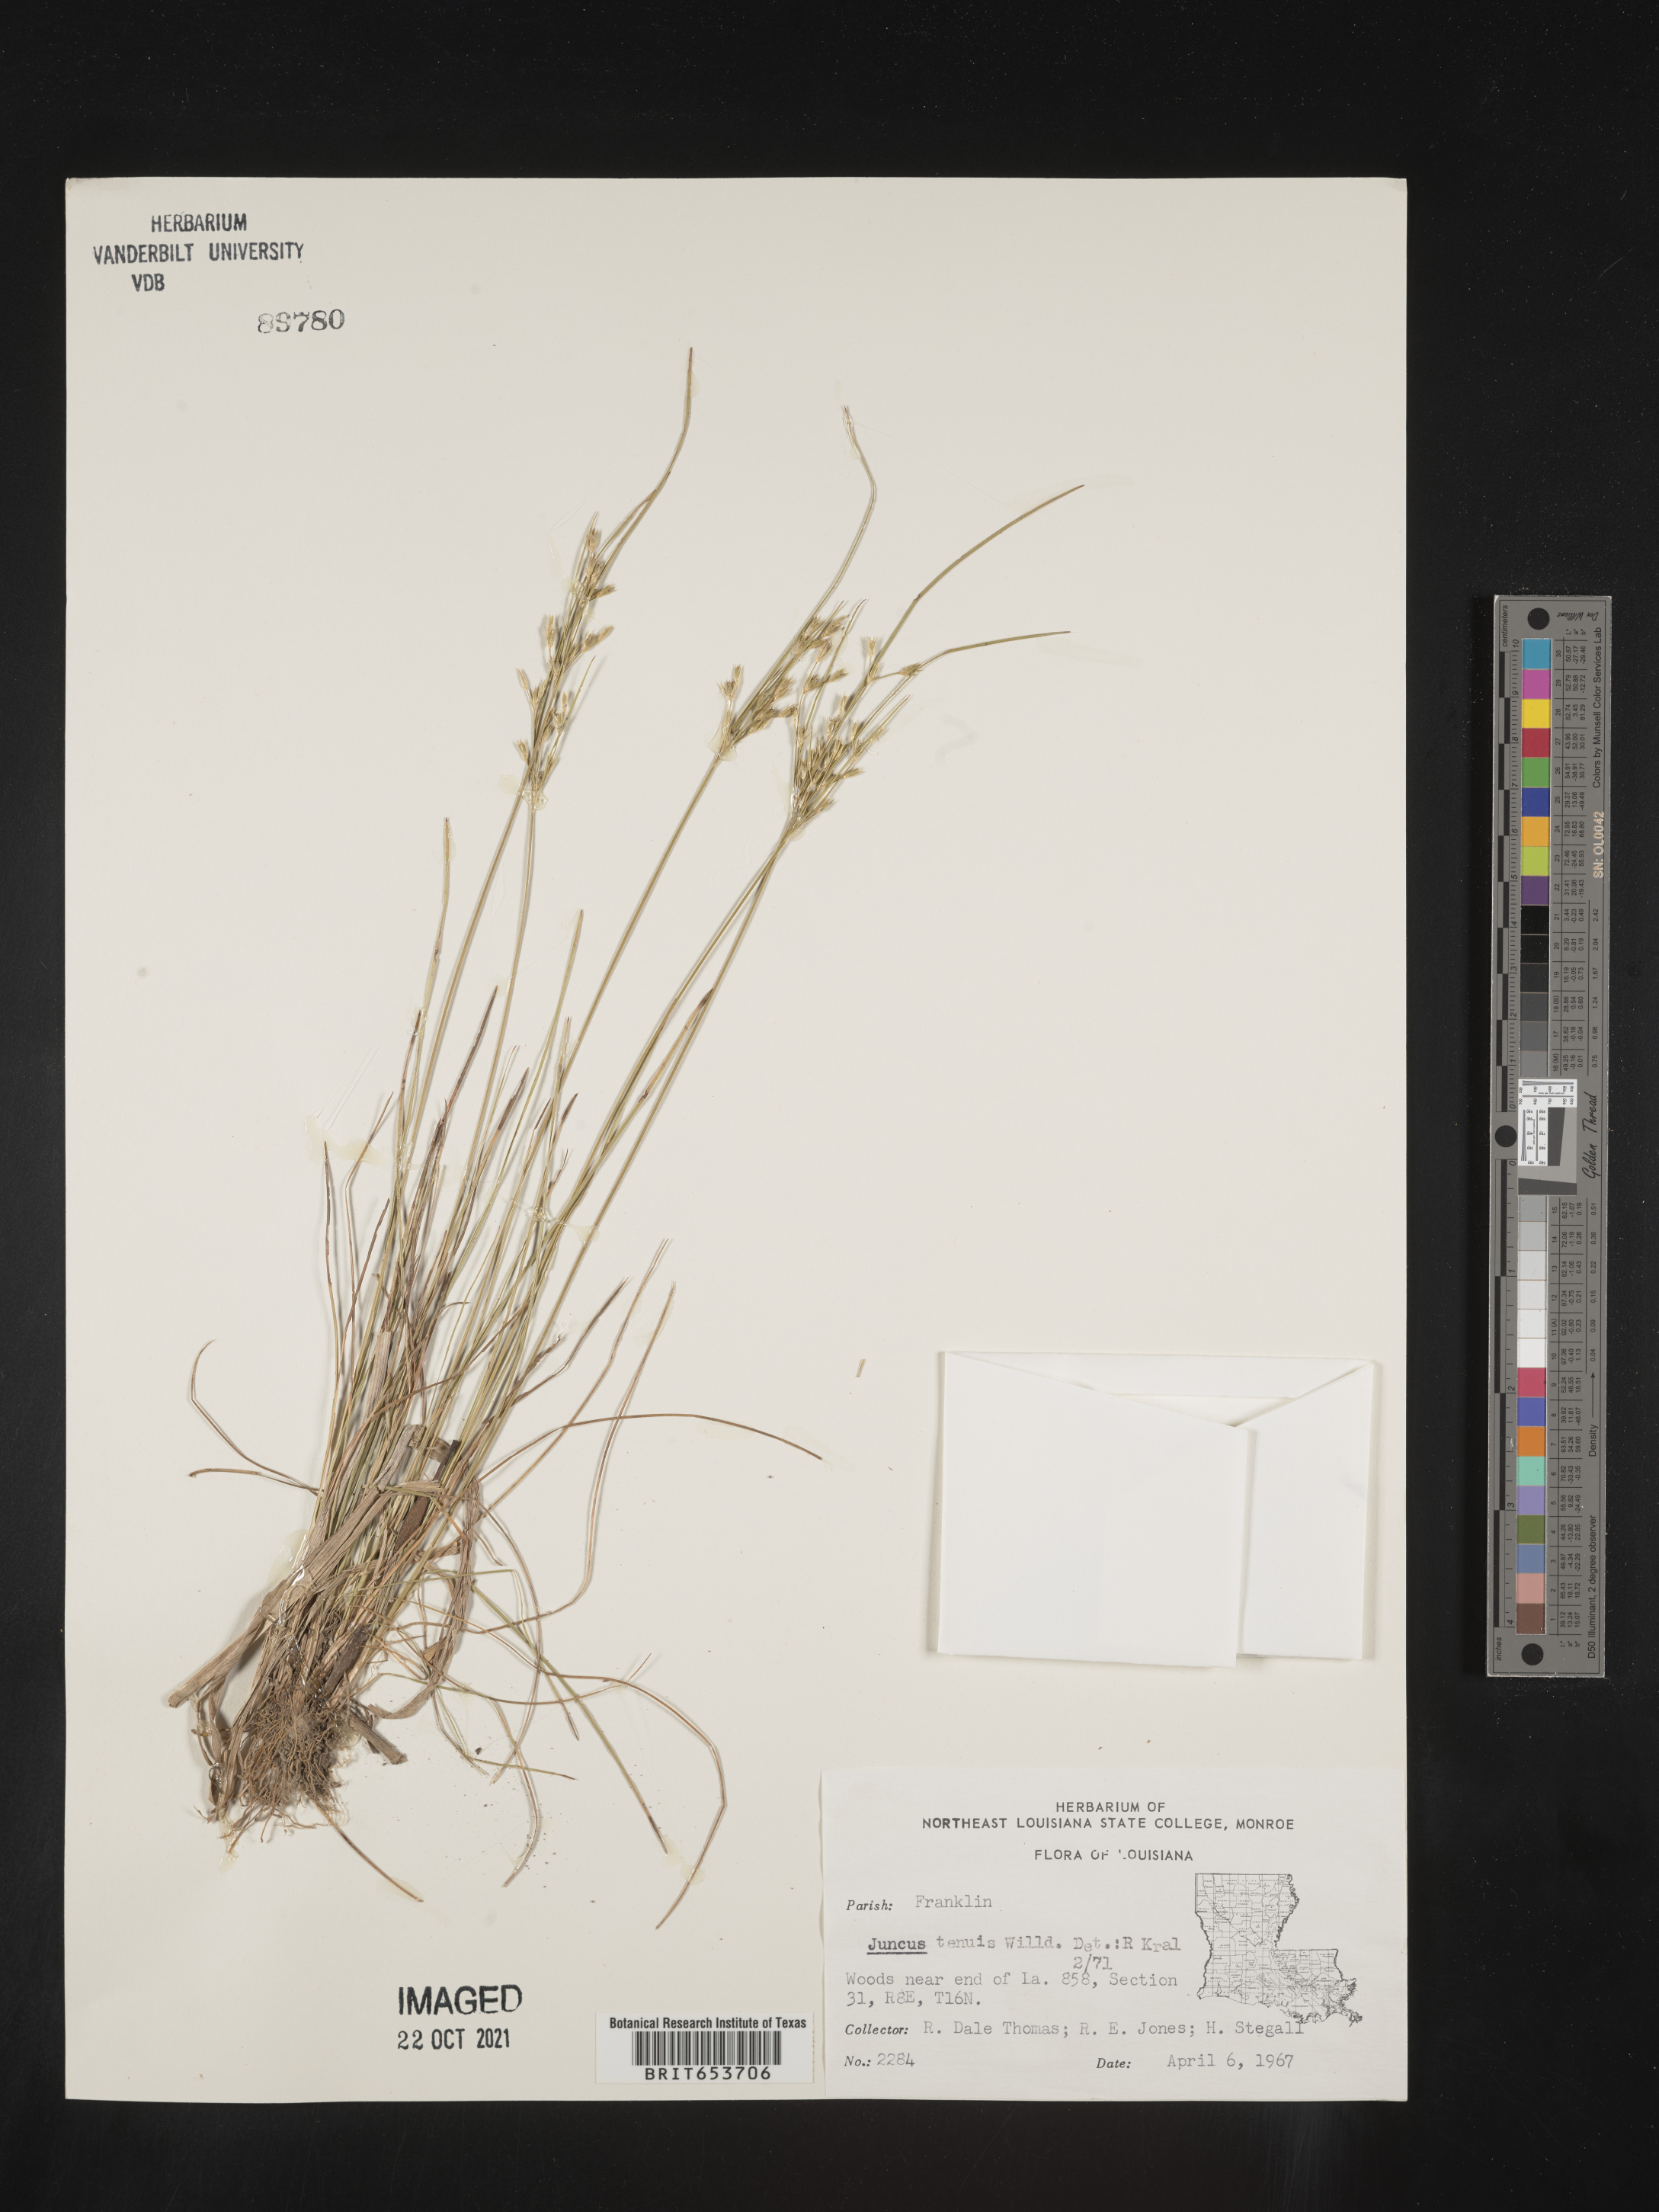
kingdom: Plantae
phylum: Tracheophyta
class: Liliopsida
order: Poales
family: Juncaceae
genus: Juncus
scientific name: Juncus tenuis
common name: Slender rush
